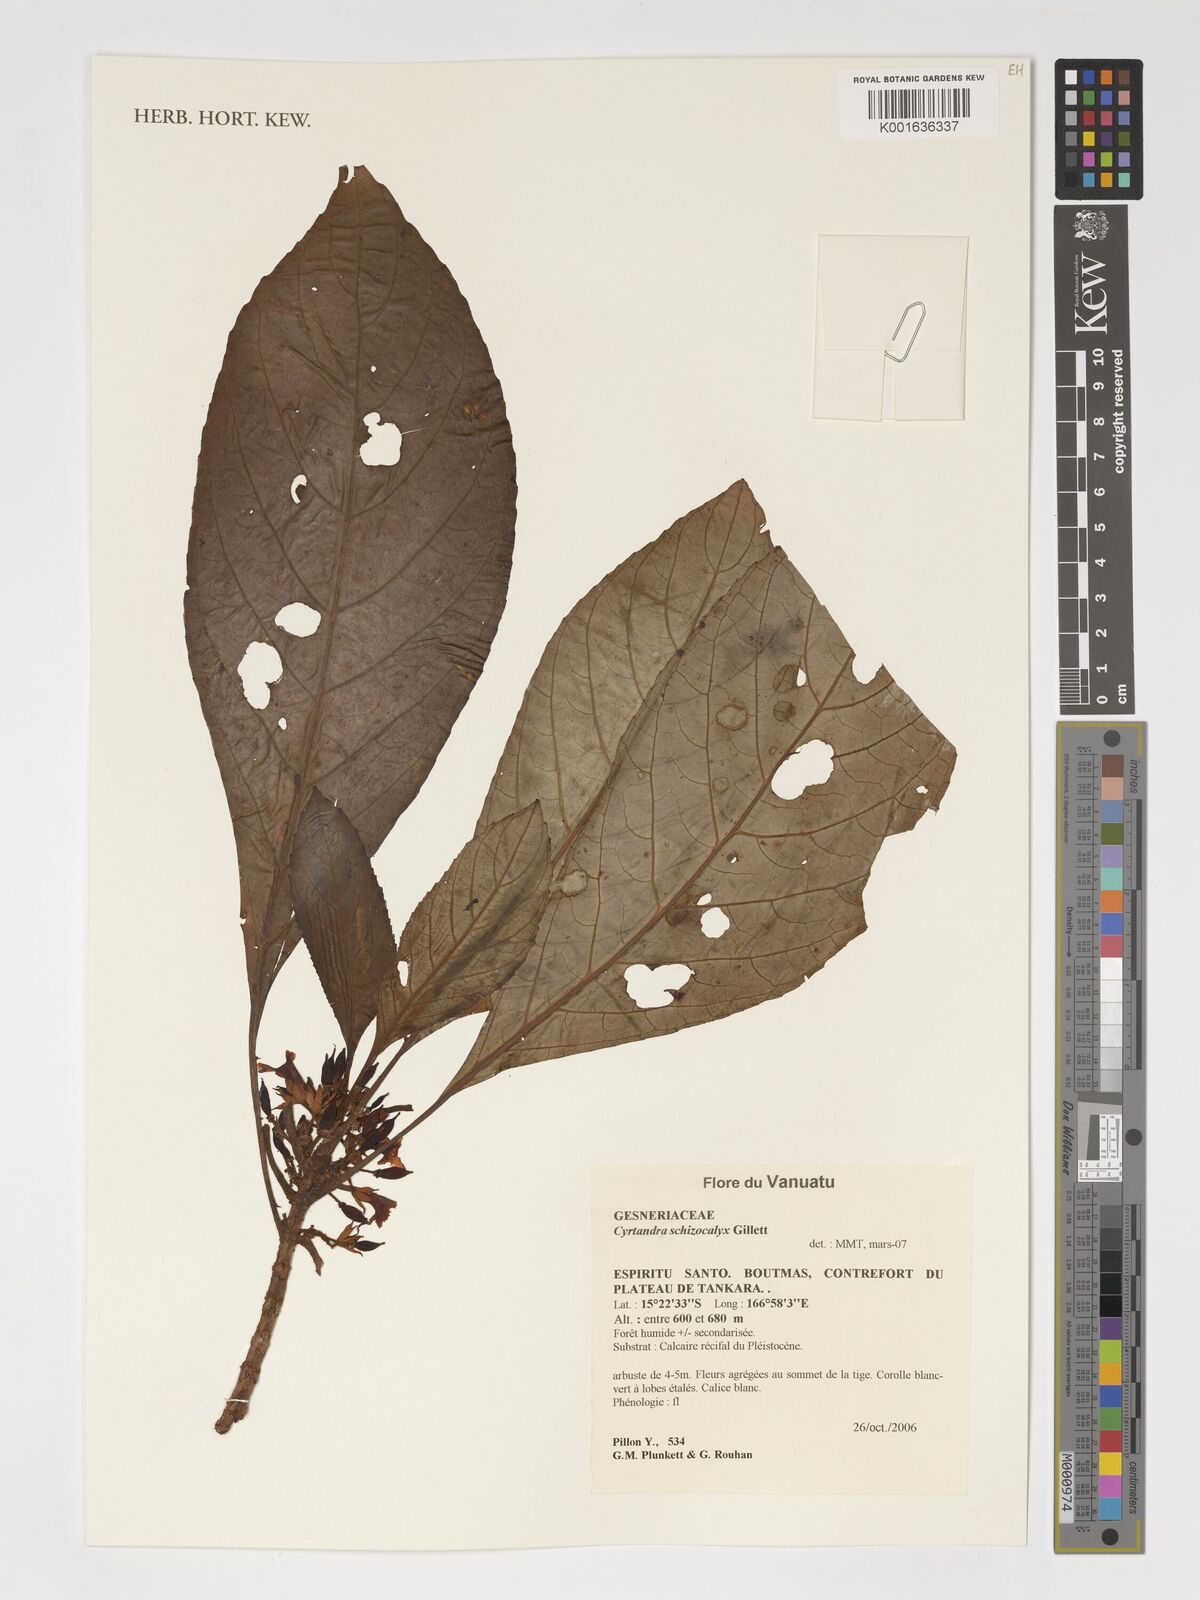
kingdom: Plantae
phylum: Tracheophyta
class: Magnoliopsida
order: Lamiales
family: Gesneriaceae
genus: Cyrtandra
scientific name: Cyrtandra schizocalyx
